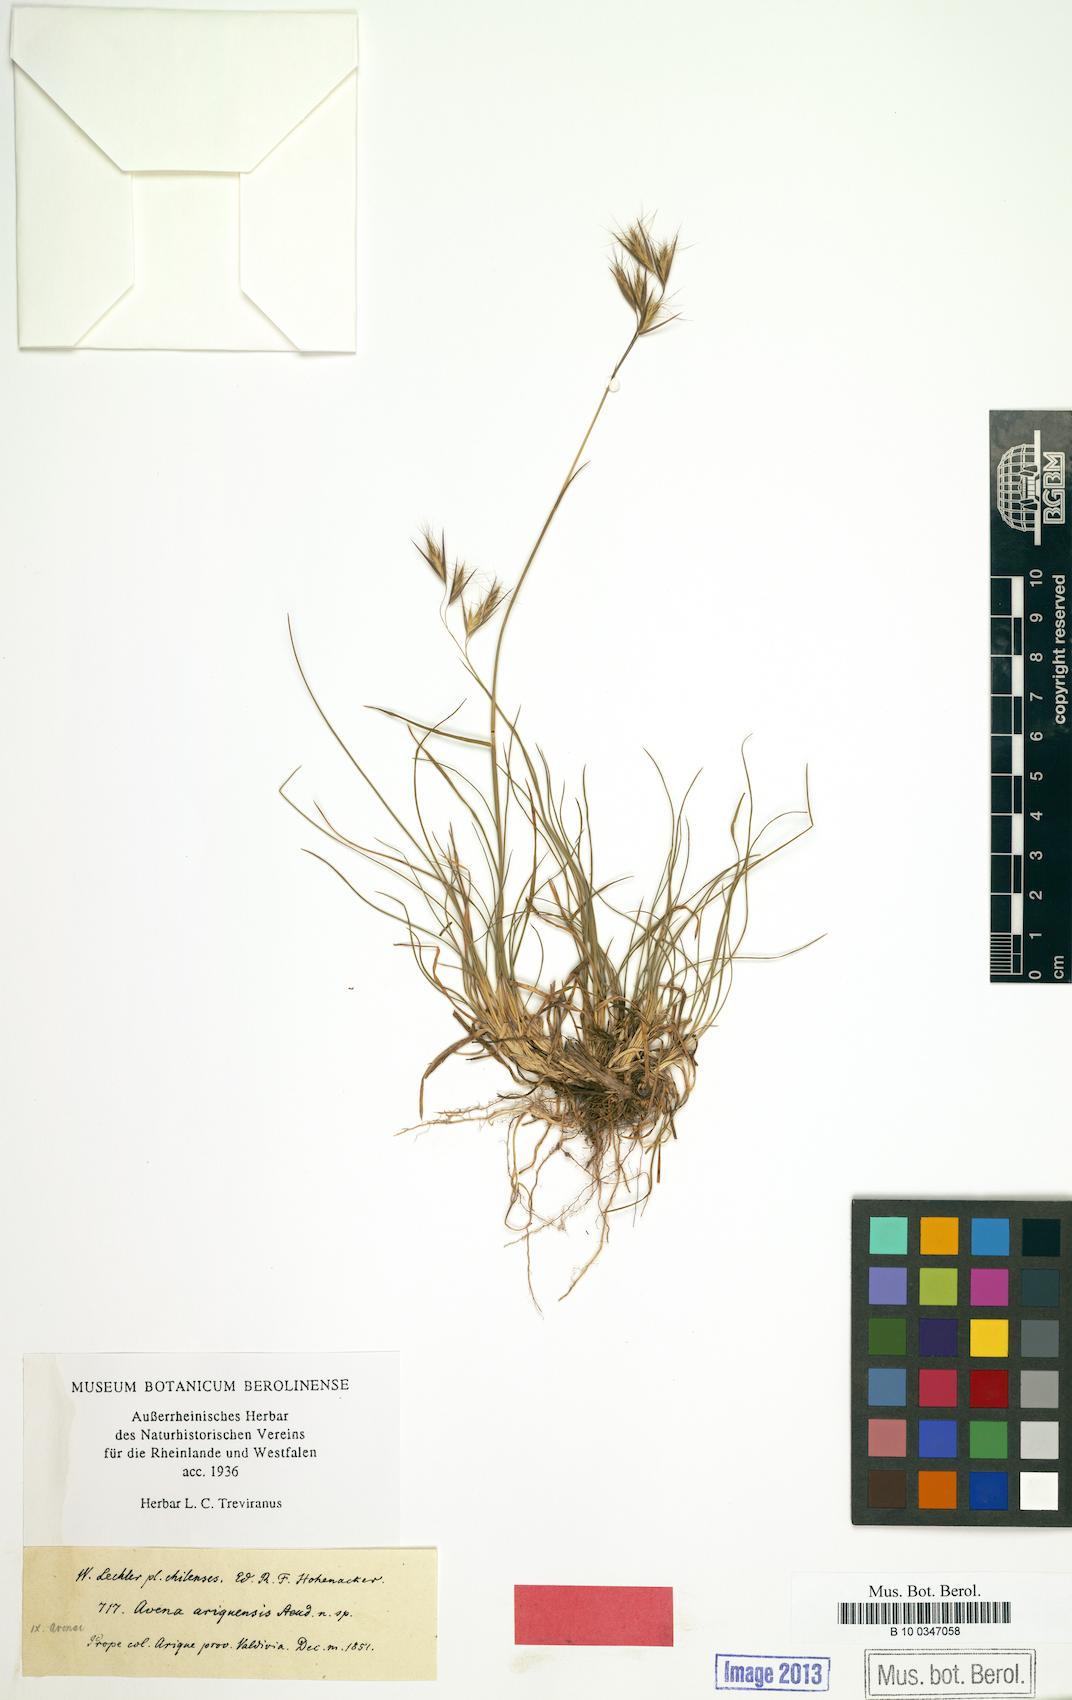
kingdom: Plantae
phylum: Tracheophyta
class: Liliopsida
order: Poales
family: Poaceae
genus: Danthonia
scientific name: Danthonia chilensis
